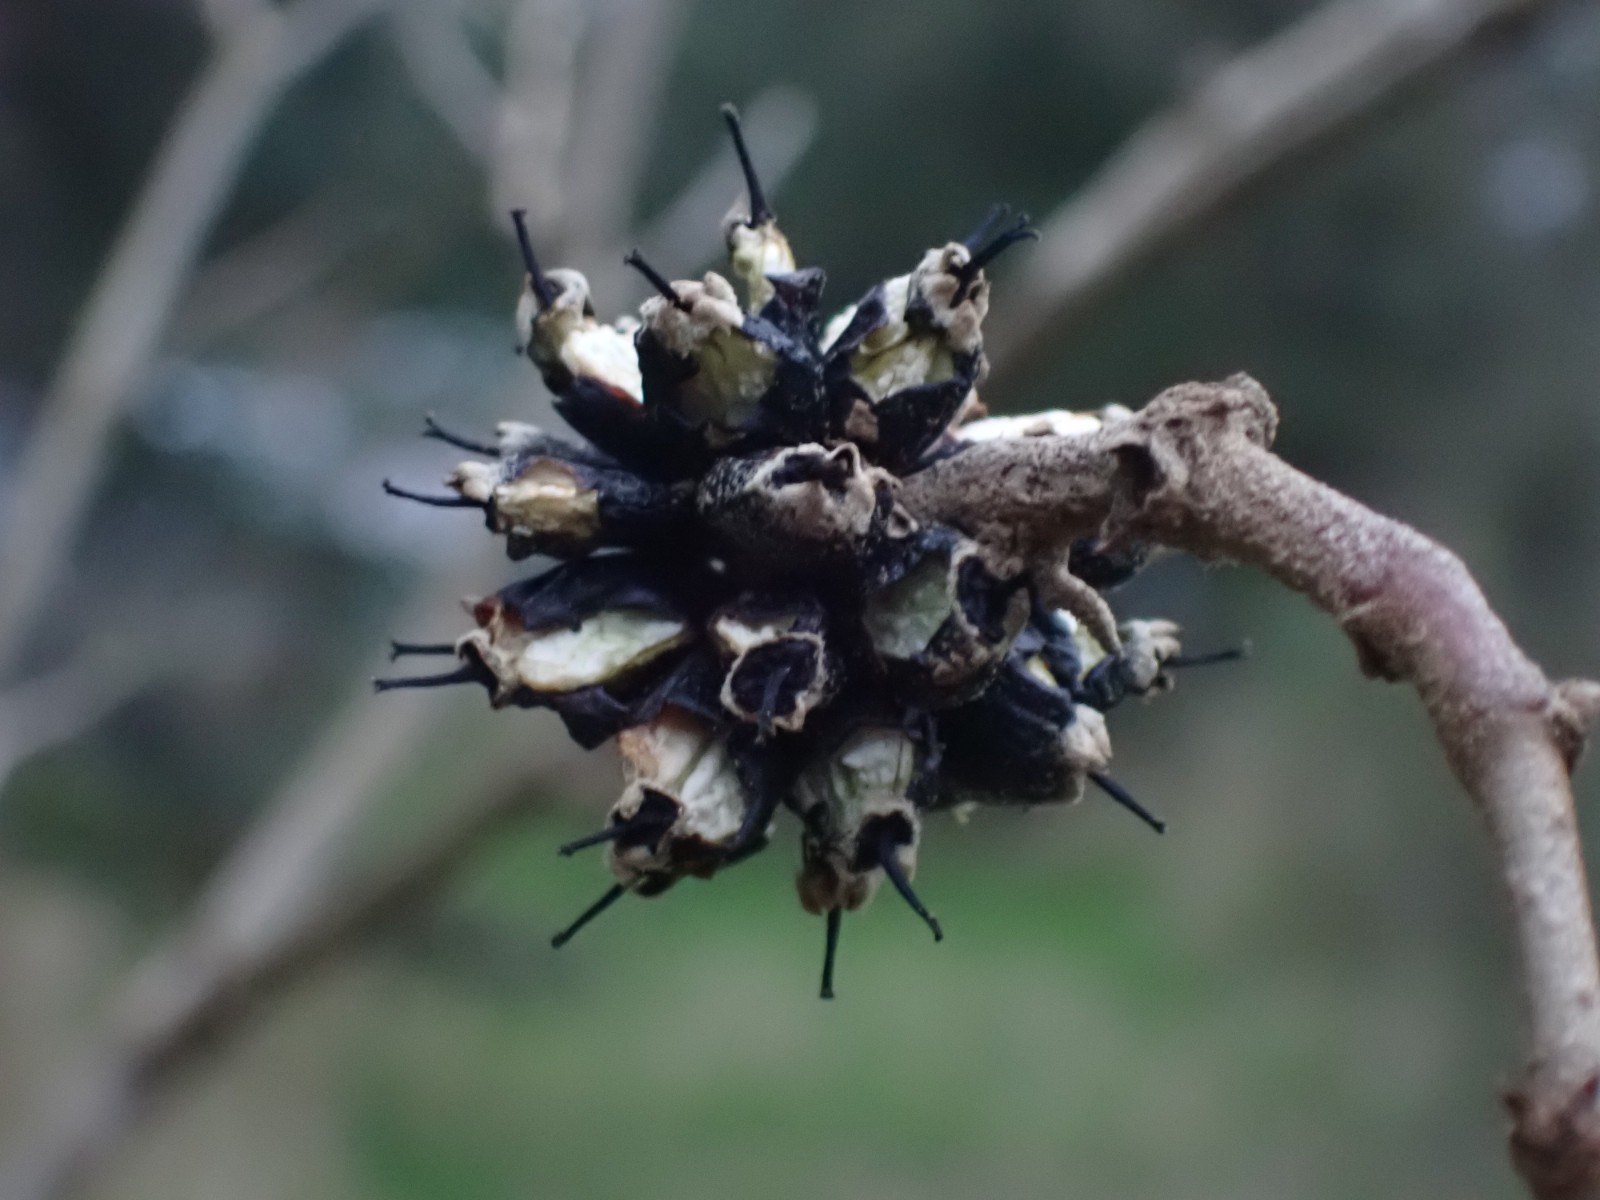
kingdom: Fungi
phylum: Basidiomycota
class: Agaricomycetes
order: Hymenochaetales
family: Hymenochaetaceae
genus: Phellinus
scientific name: Phellinus pomaceus
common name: blomme-ildporesvamp
